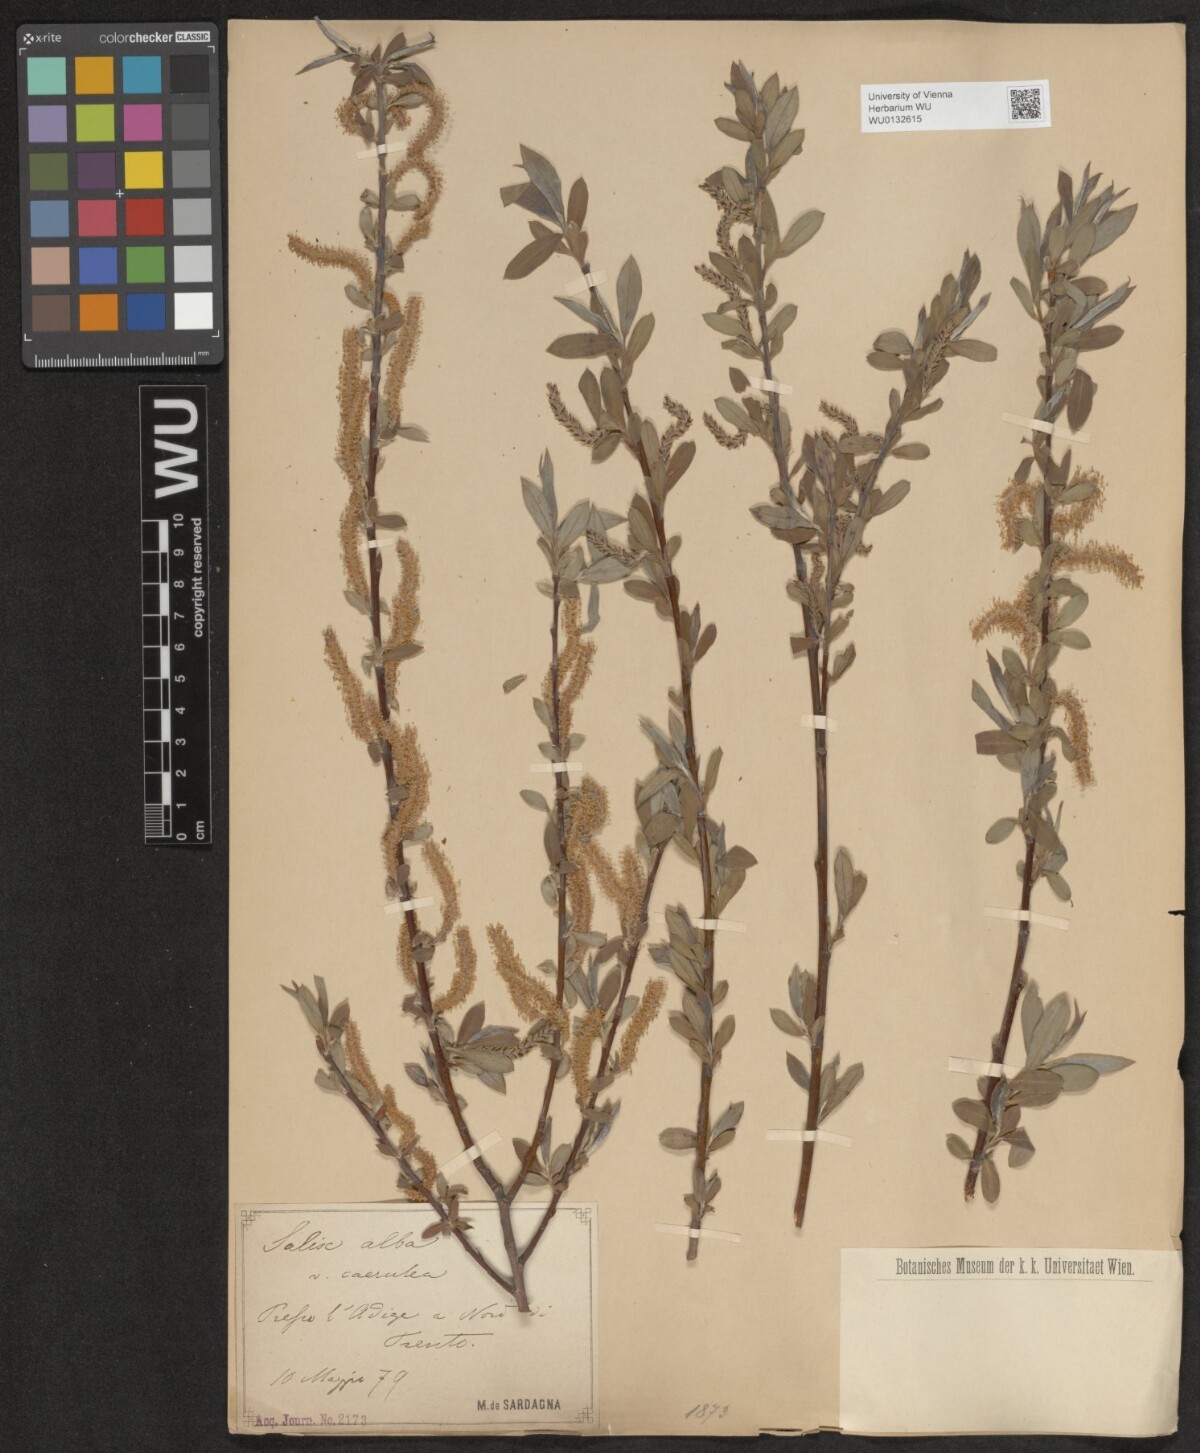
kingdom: Plantae
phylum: Tracheophyta
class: Magnoliopsida
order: Malpighiales
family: Salicaceae
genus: Salix
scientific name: Salix alba
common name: White willow
